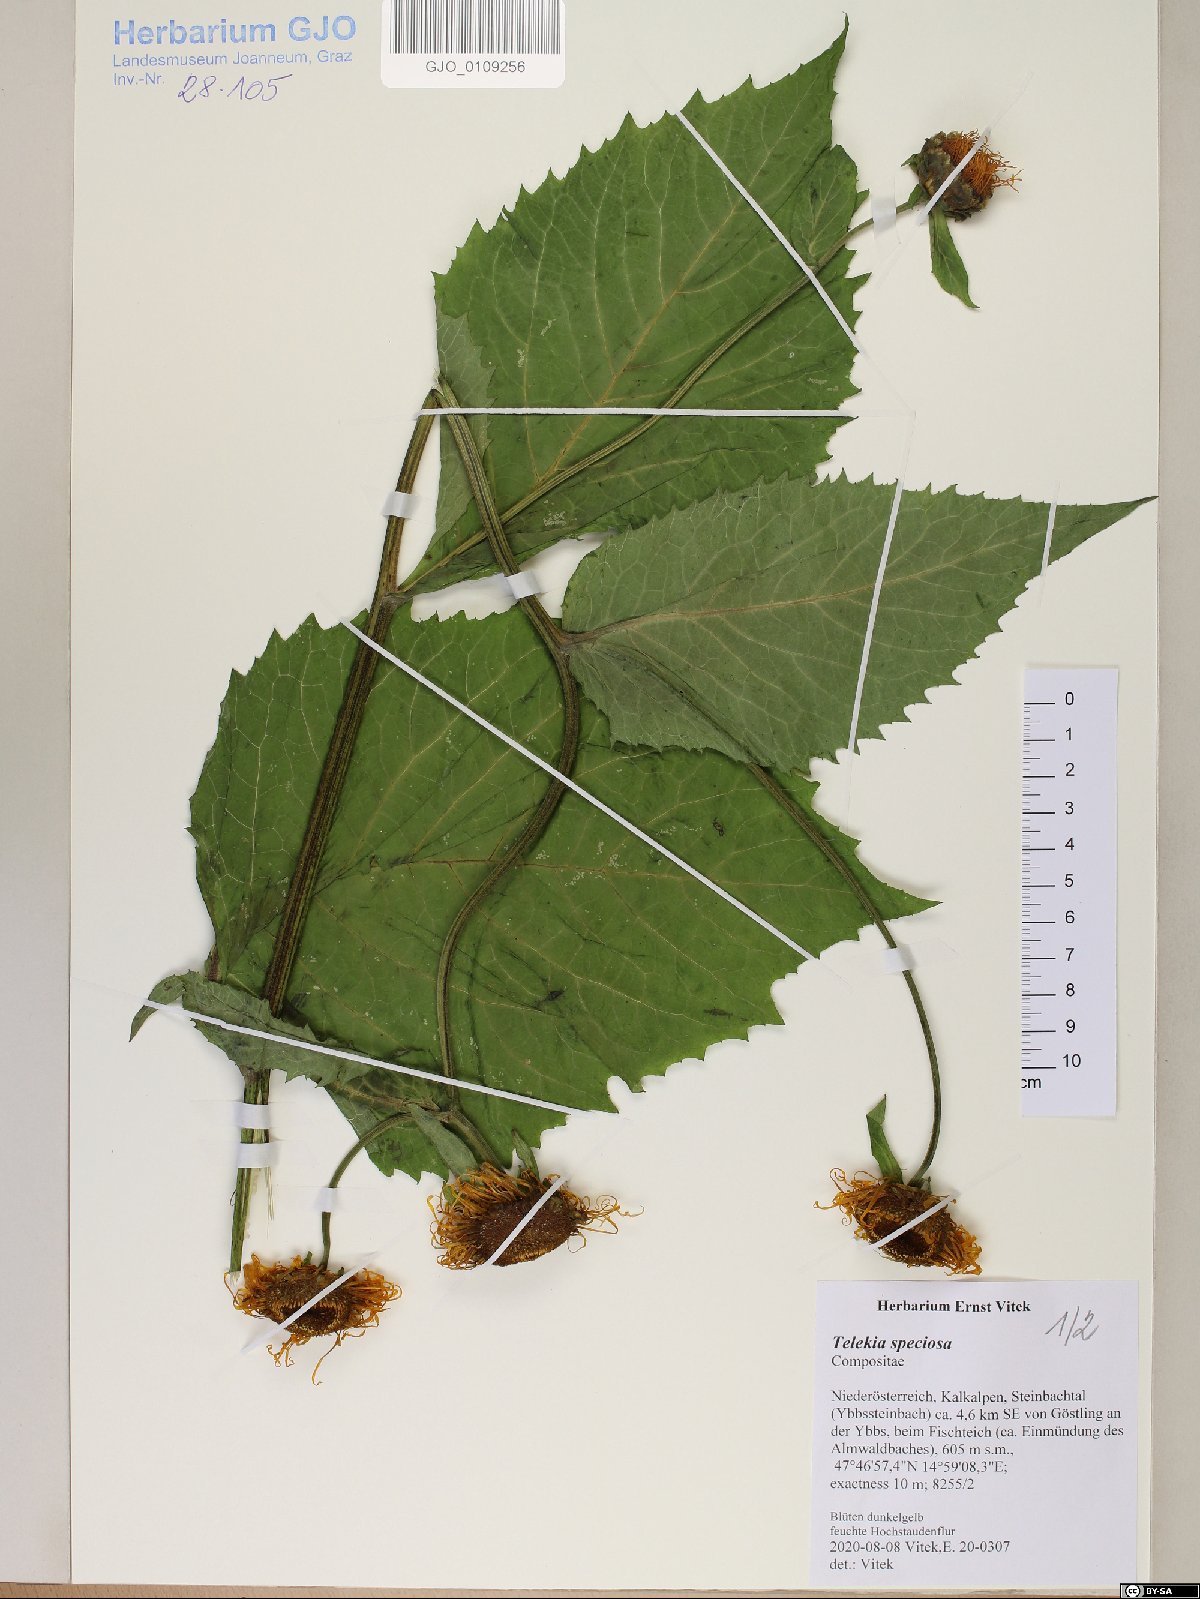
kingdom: Plantae
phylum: Tracheophyta
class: Magnoliopsida
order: Asterales
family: Asteraceae
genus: Telekia
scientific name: Telekia speciosa
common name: Yellow oxeye
